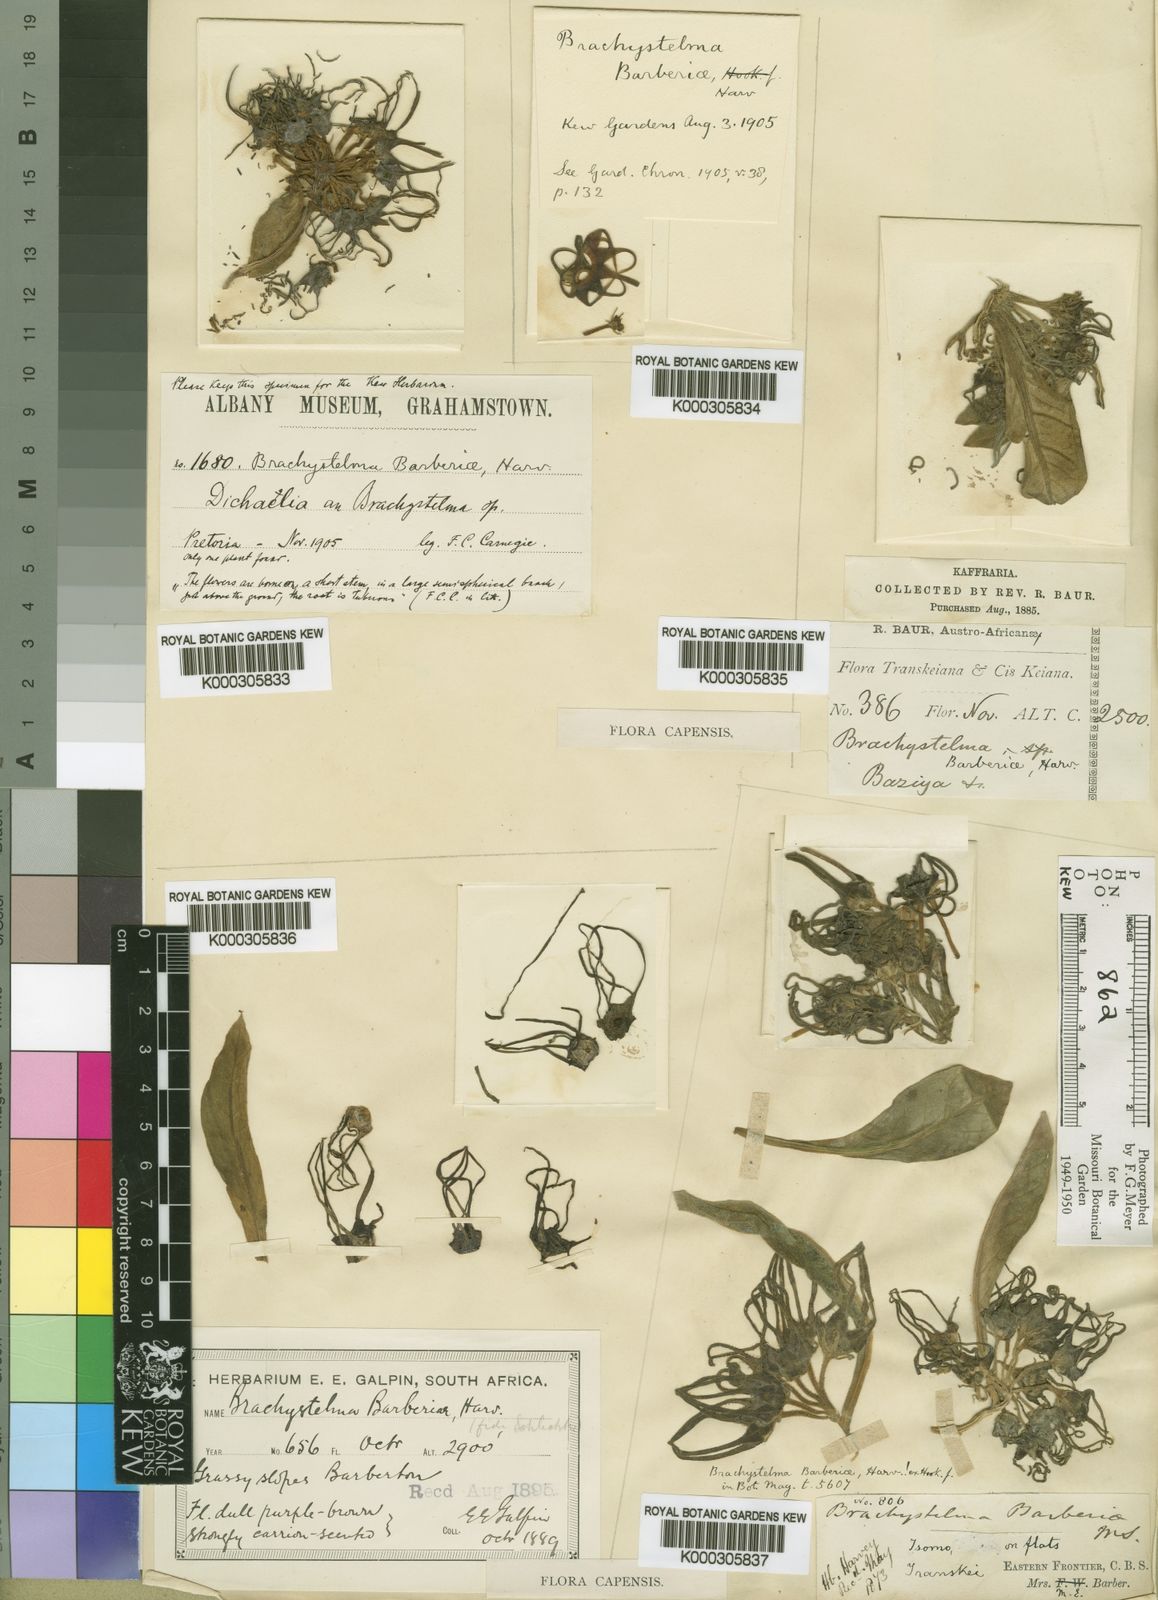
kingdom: Plantae
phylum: Tracheophyta
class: Magnoliopsida
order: Gentianales
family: Apocynaceae
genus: Ceropegia
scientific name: Ceropegia barberae
